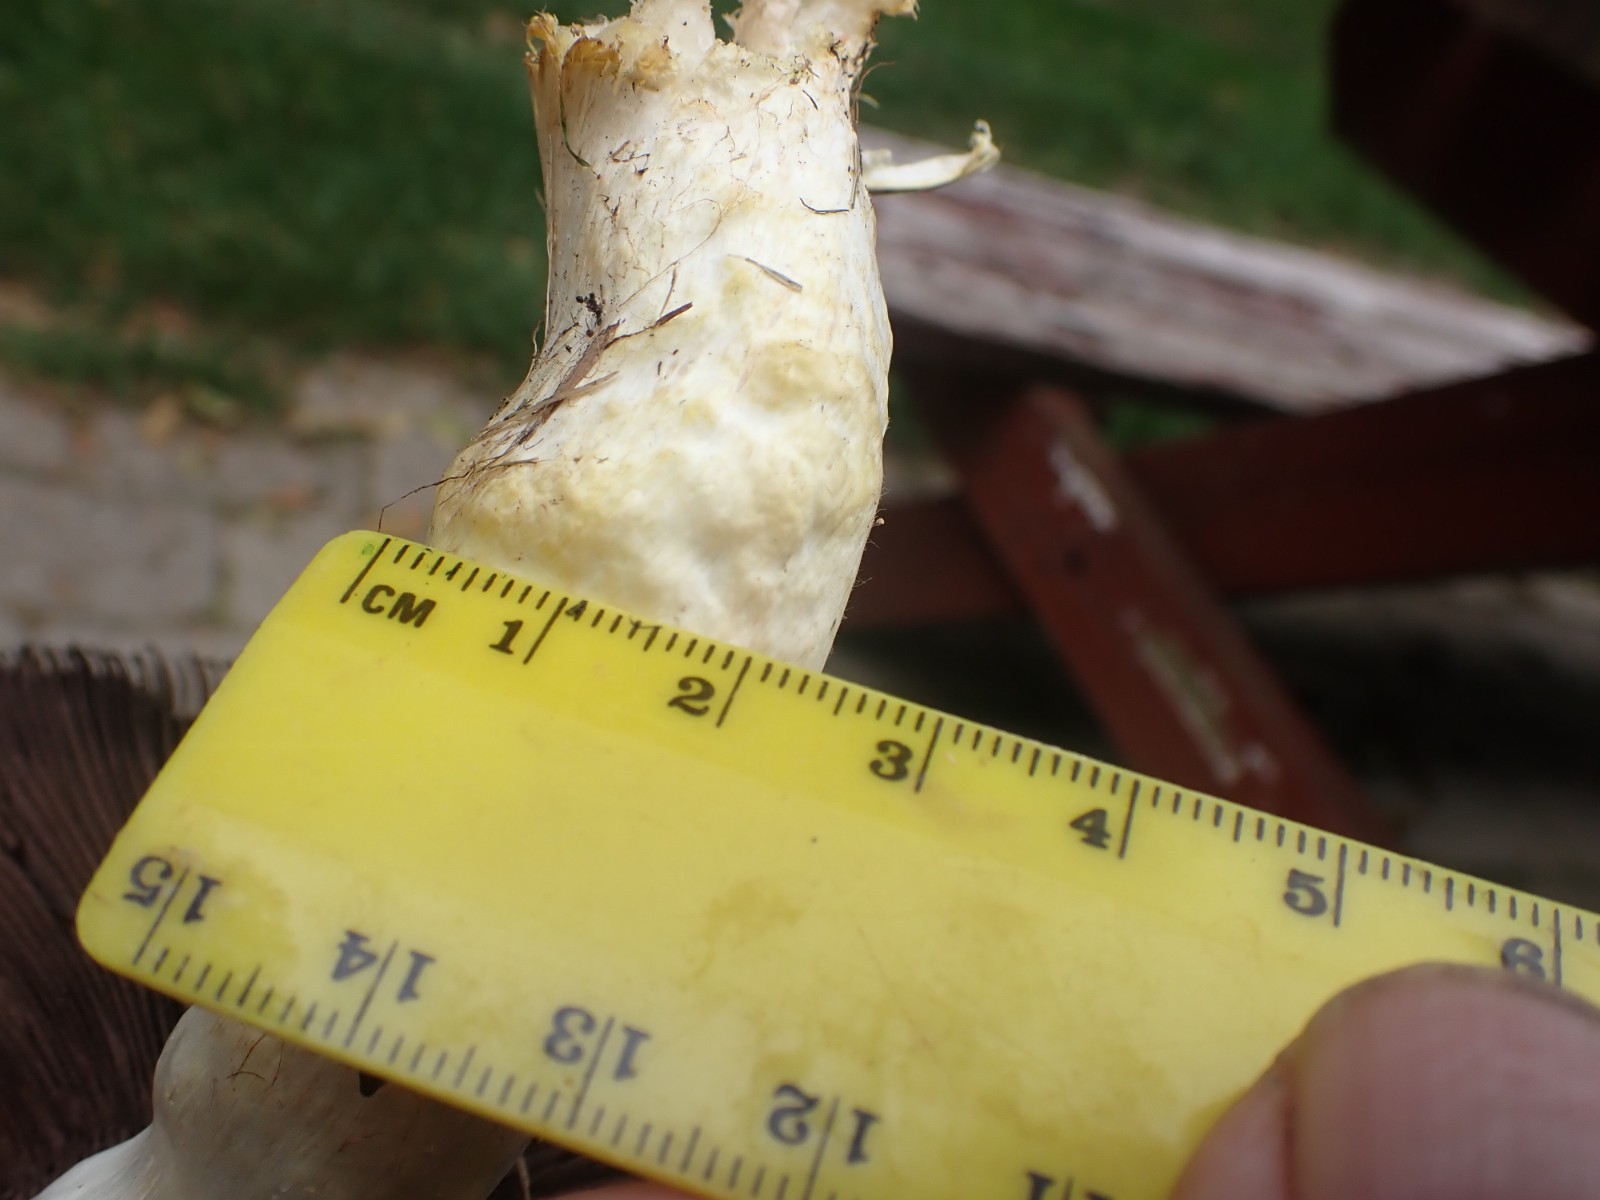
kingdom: Fungi
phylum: Basidiomycota
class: Agaricomycetes
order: Agaricales
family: Agaricaceae
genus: Agaricus
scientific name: Agaricus
